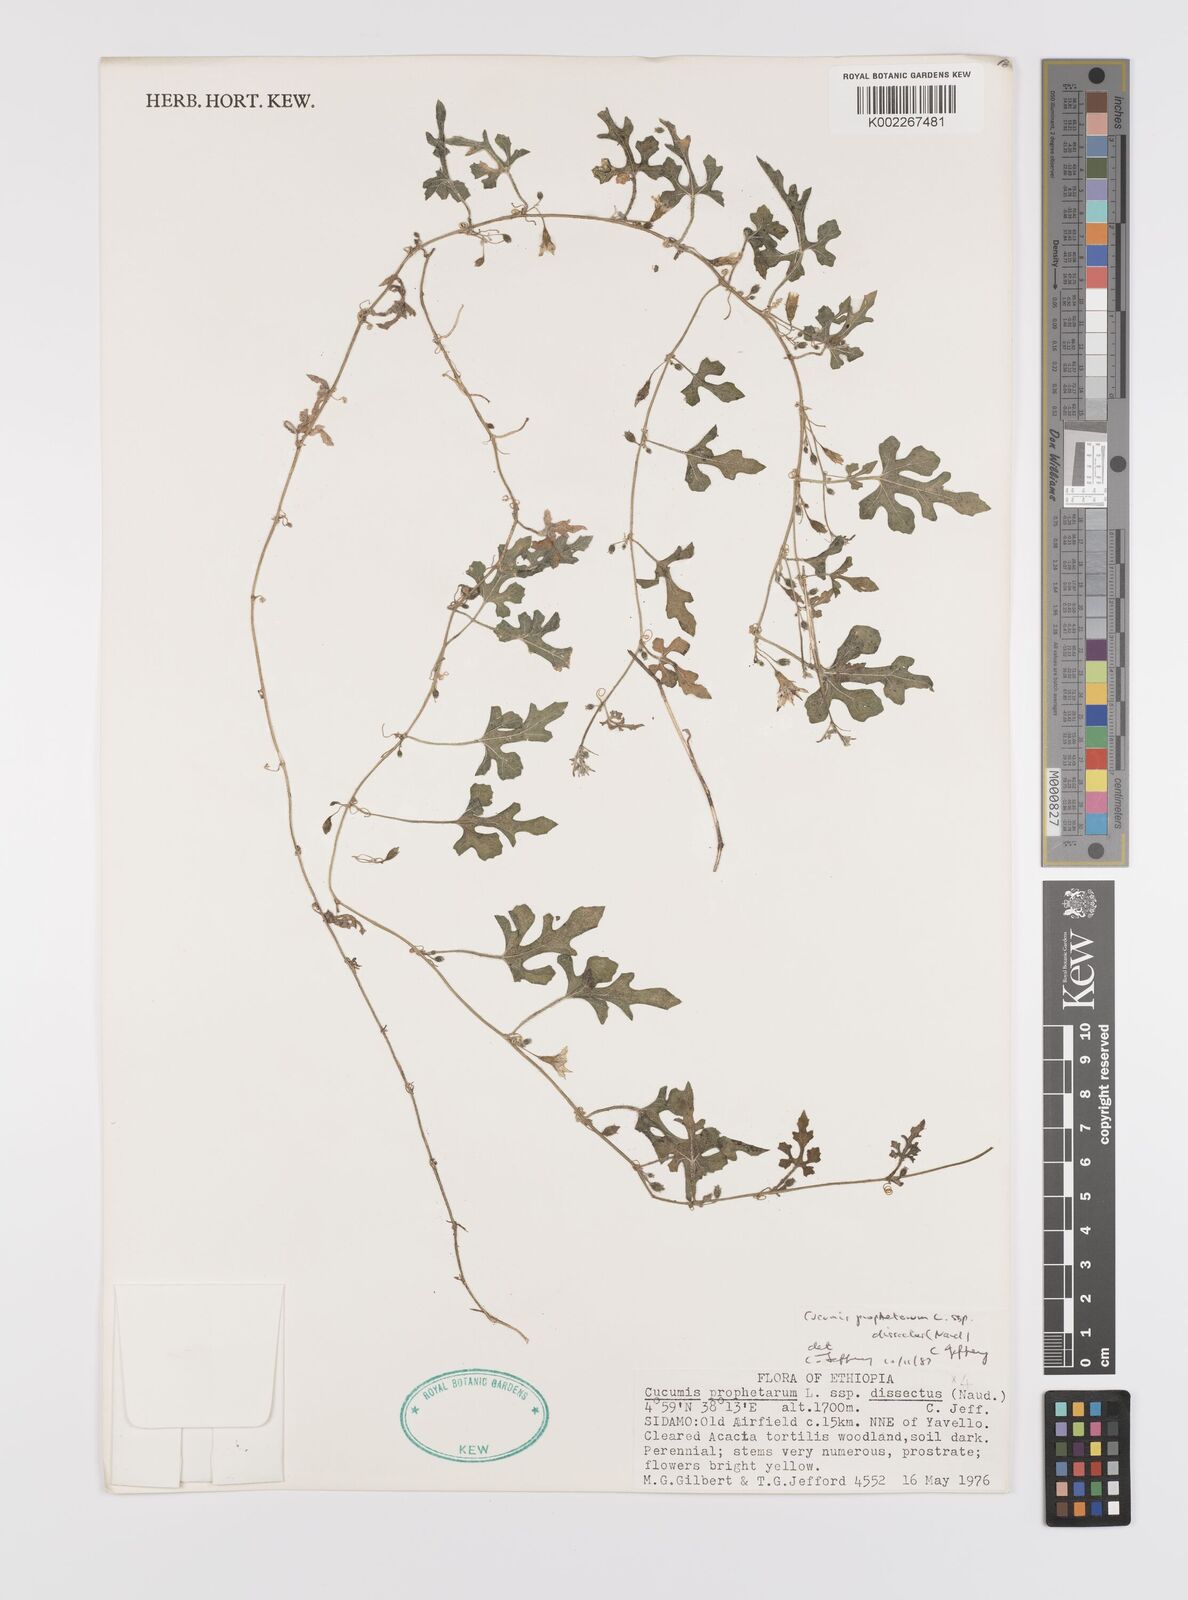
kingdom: Plantae
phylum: Tracheophyta
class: Magnoliopsida
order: Cucurbitales
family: Cucurbitaceae
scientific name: Cucurbitaceae
